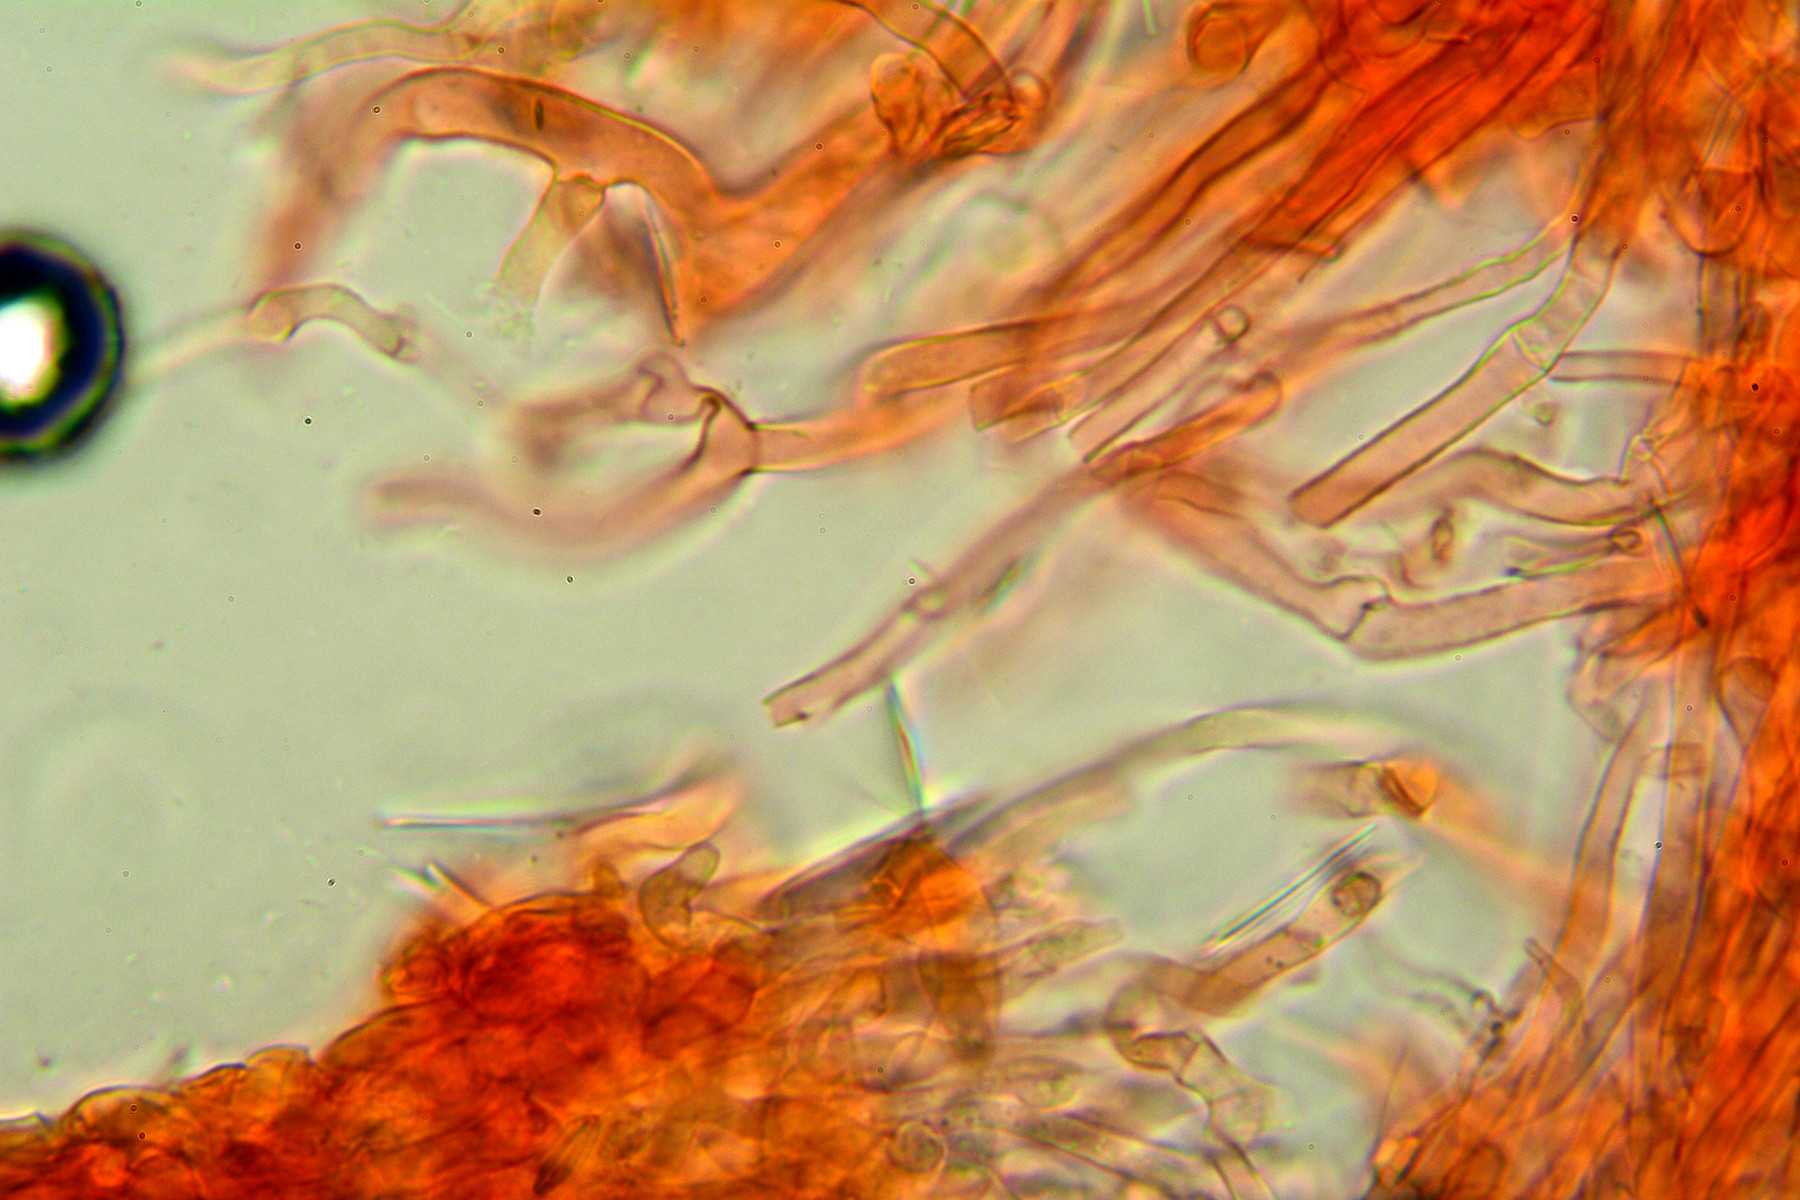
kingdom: Fungi
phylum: Basidiomycota
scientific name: Basidiomycota
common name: basidiesvampe
